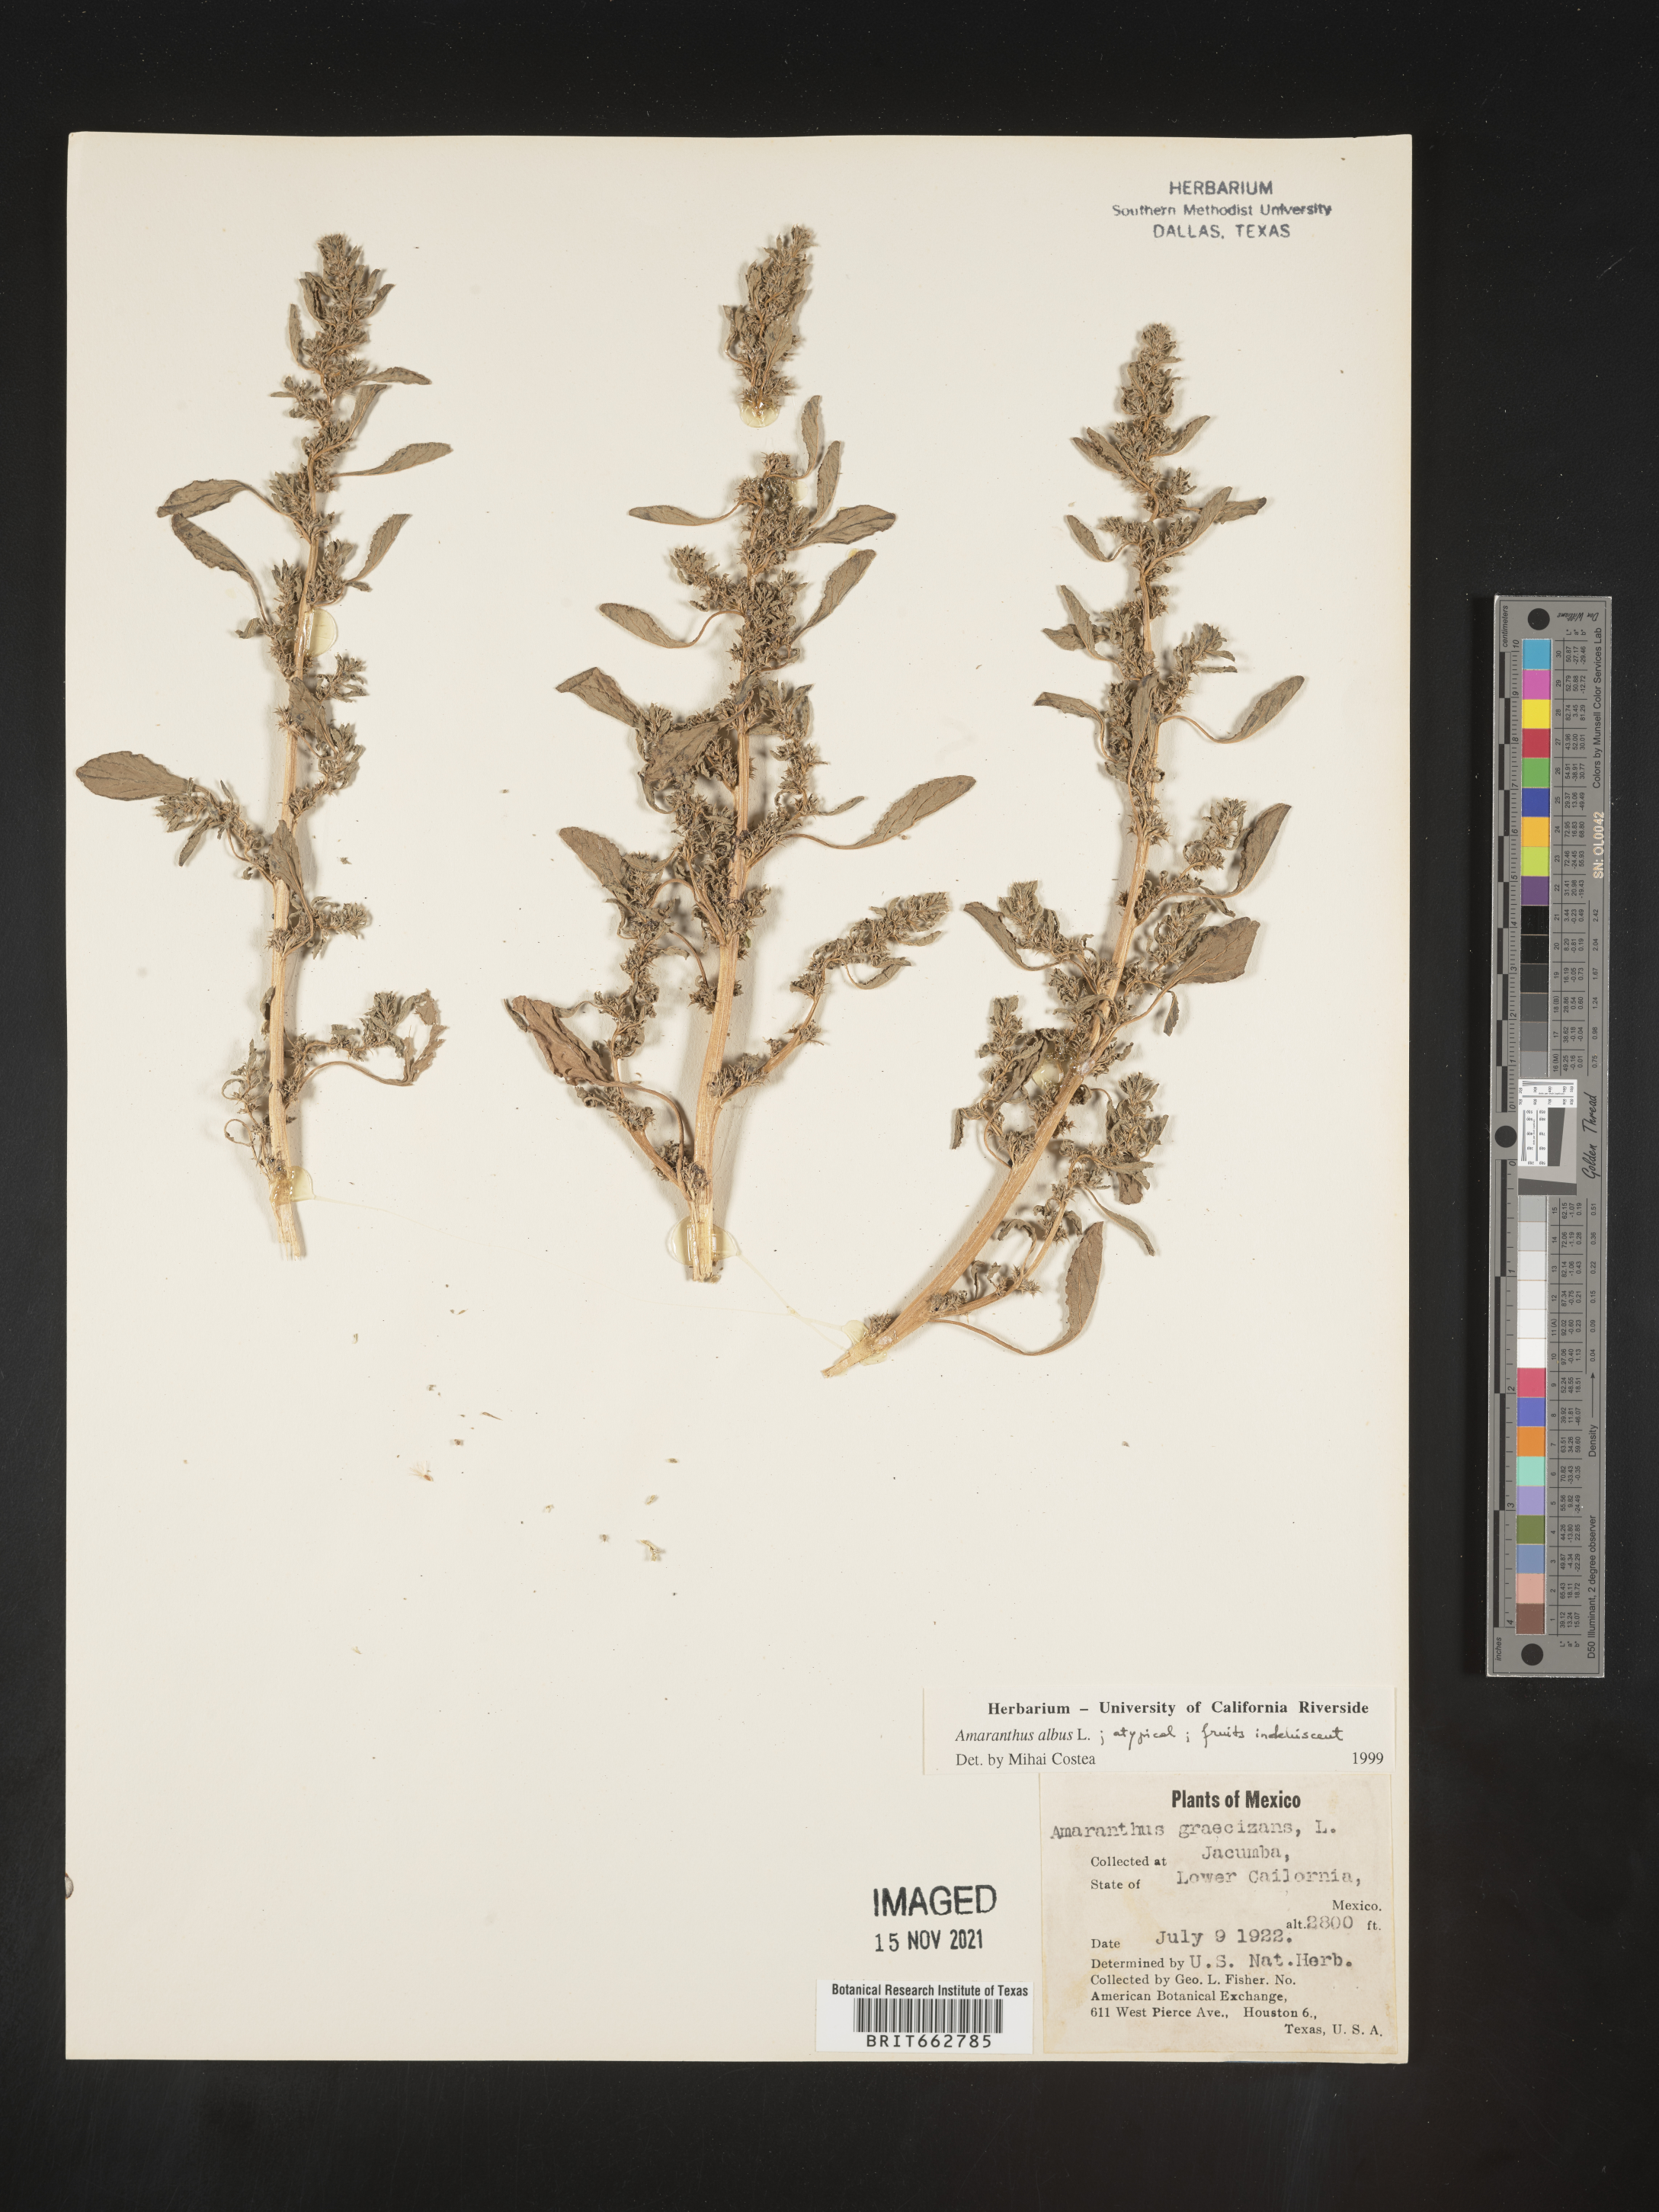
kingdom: Plantae
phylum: Tracheophyta
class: Magnoliopsida
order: Caryophyllales
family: Amaranthaceae
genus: Amaranthus
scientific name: Amaranthus blitoides
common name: Prostrate pigweed
